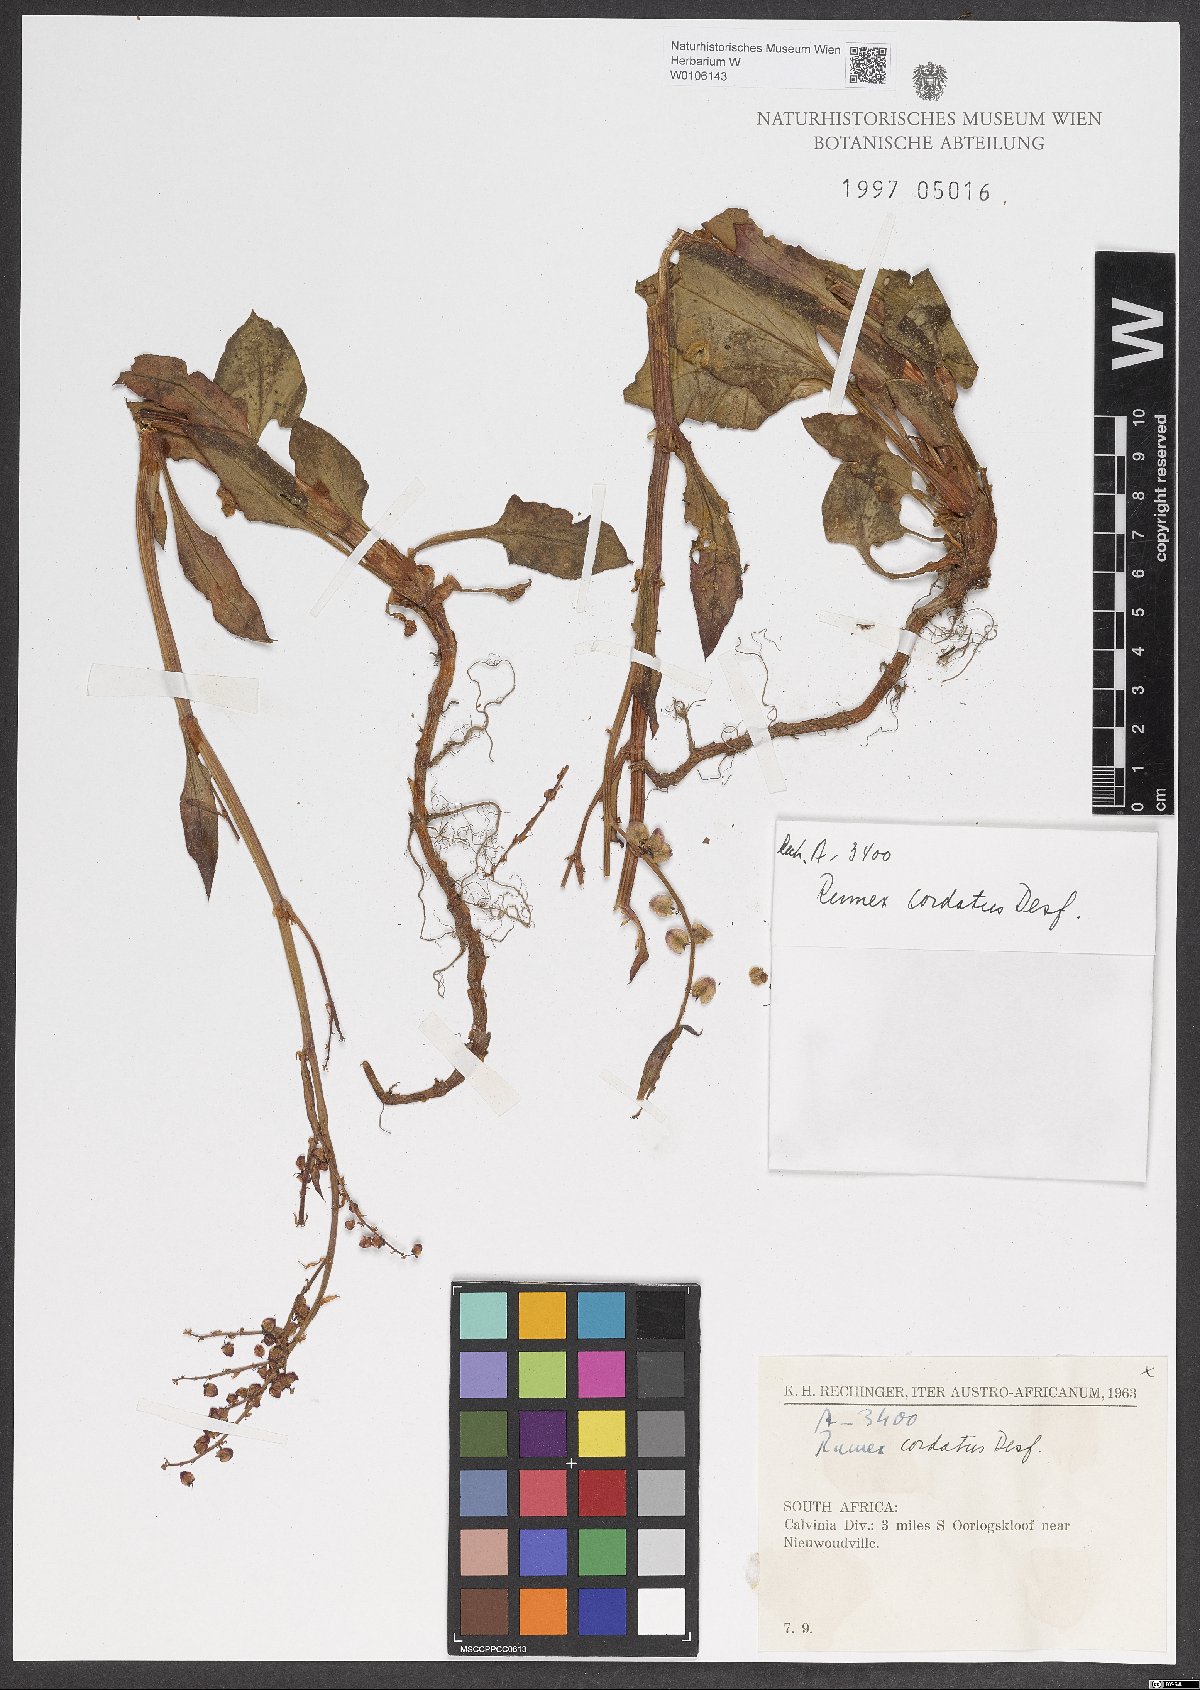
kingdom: Plantae
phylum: Tracheophyta
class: Magnoliopsida
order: Caryophyllales
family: Polygonaceae
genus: Rumex
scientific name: Rumex cordatus
